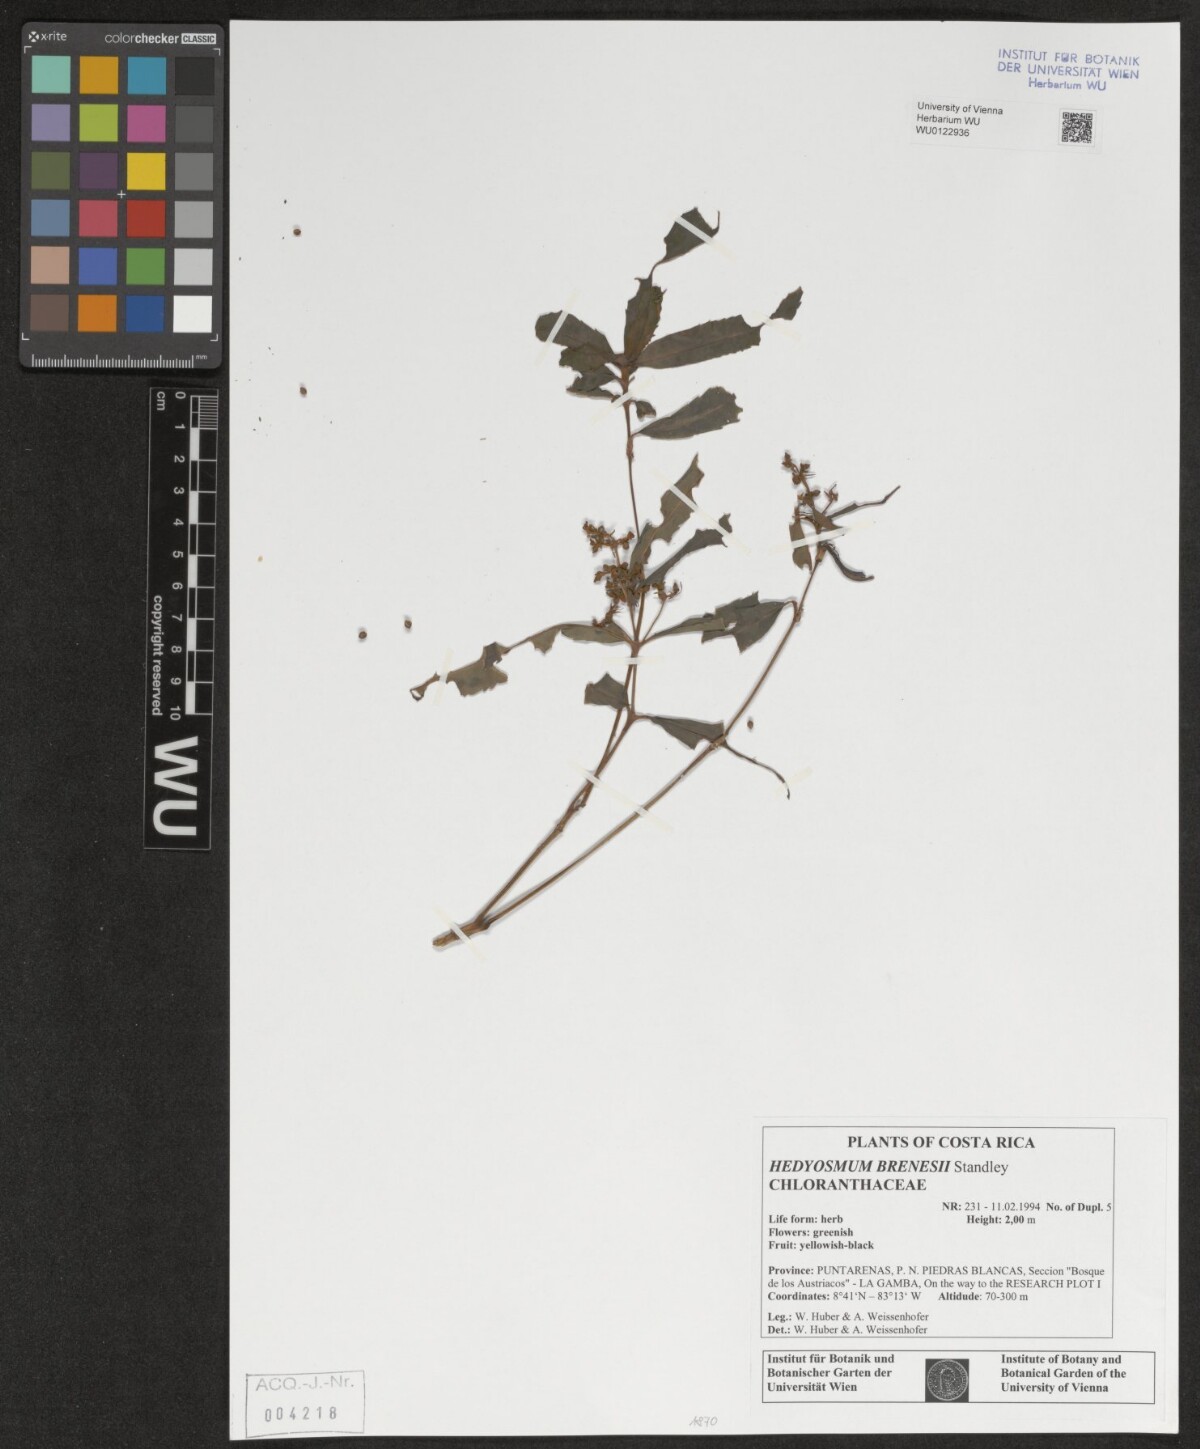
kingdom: Plantae
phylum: Tracheophyta
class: Magnoliopsida
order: Chloranthales
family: Chloranthaceae
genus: Hedyosmum
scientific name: Hedyosmum brenesii
